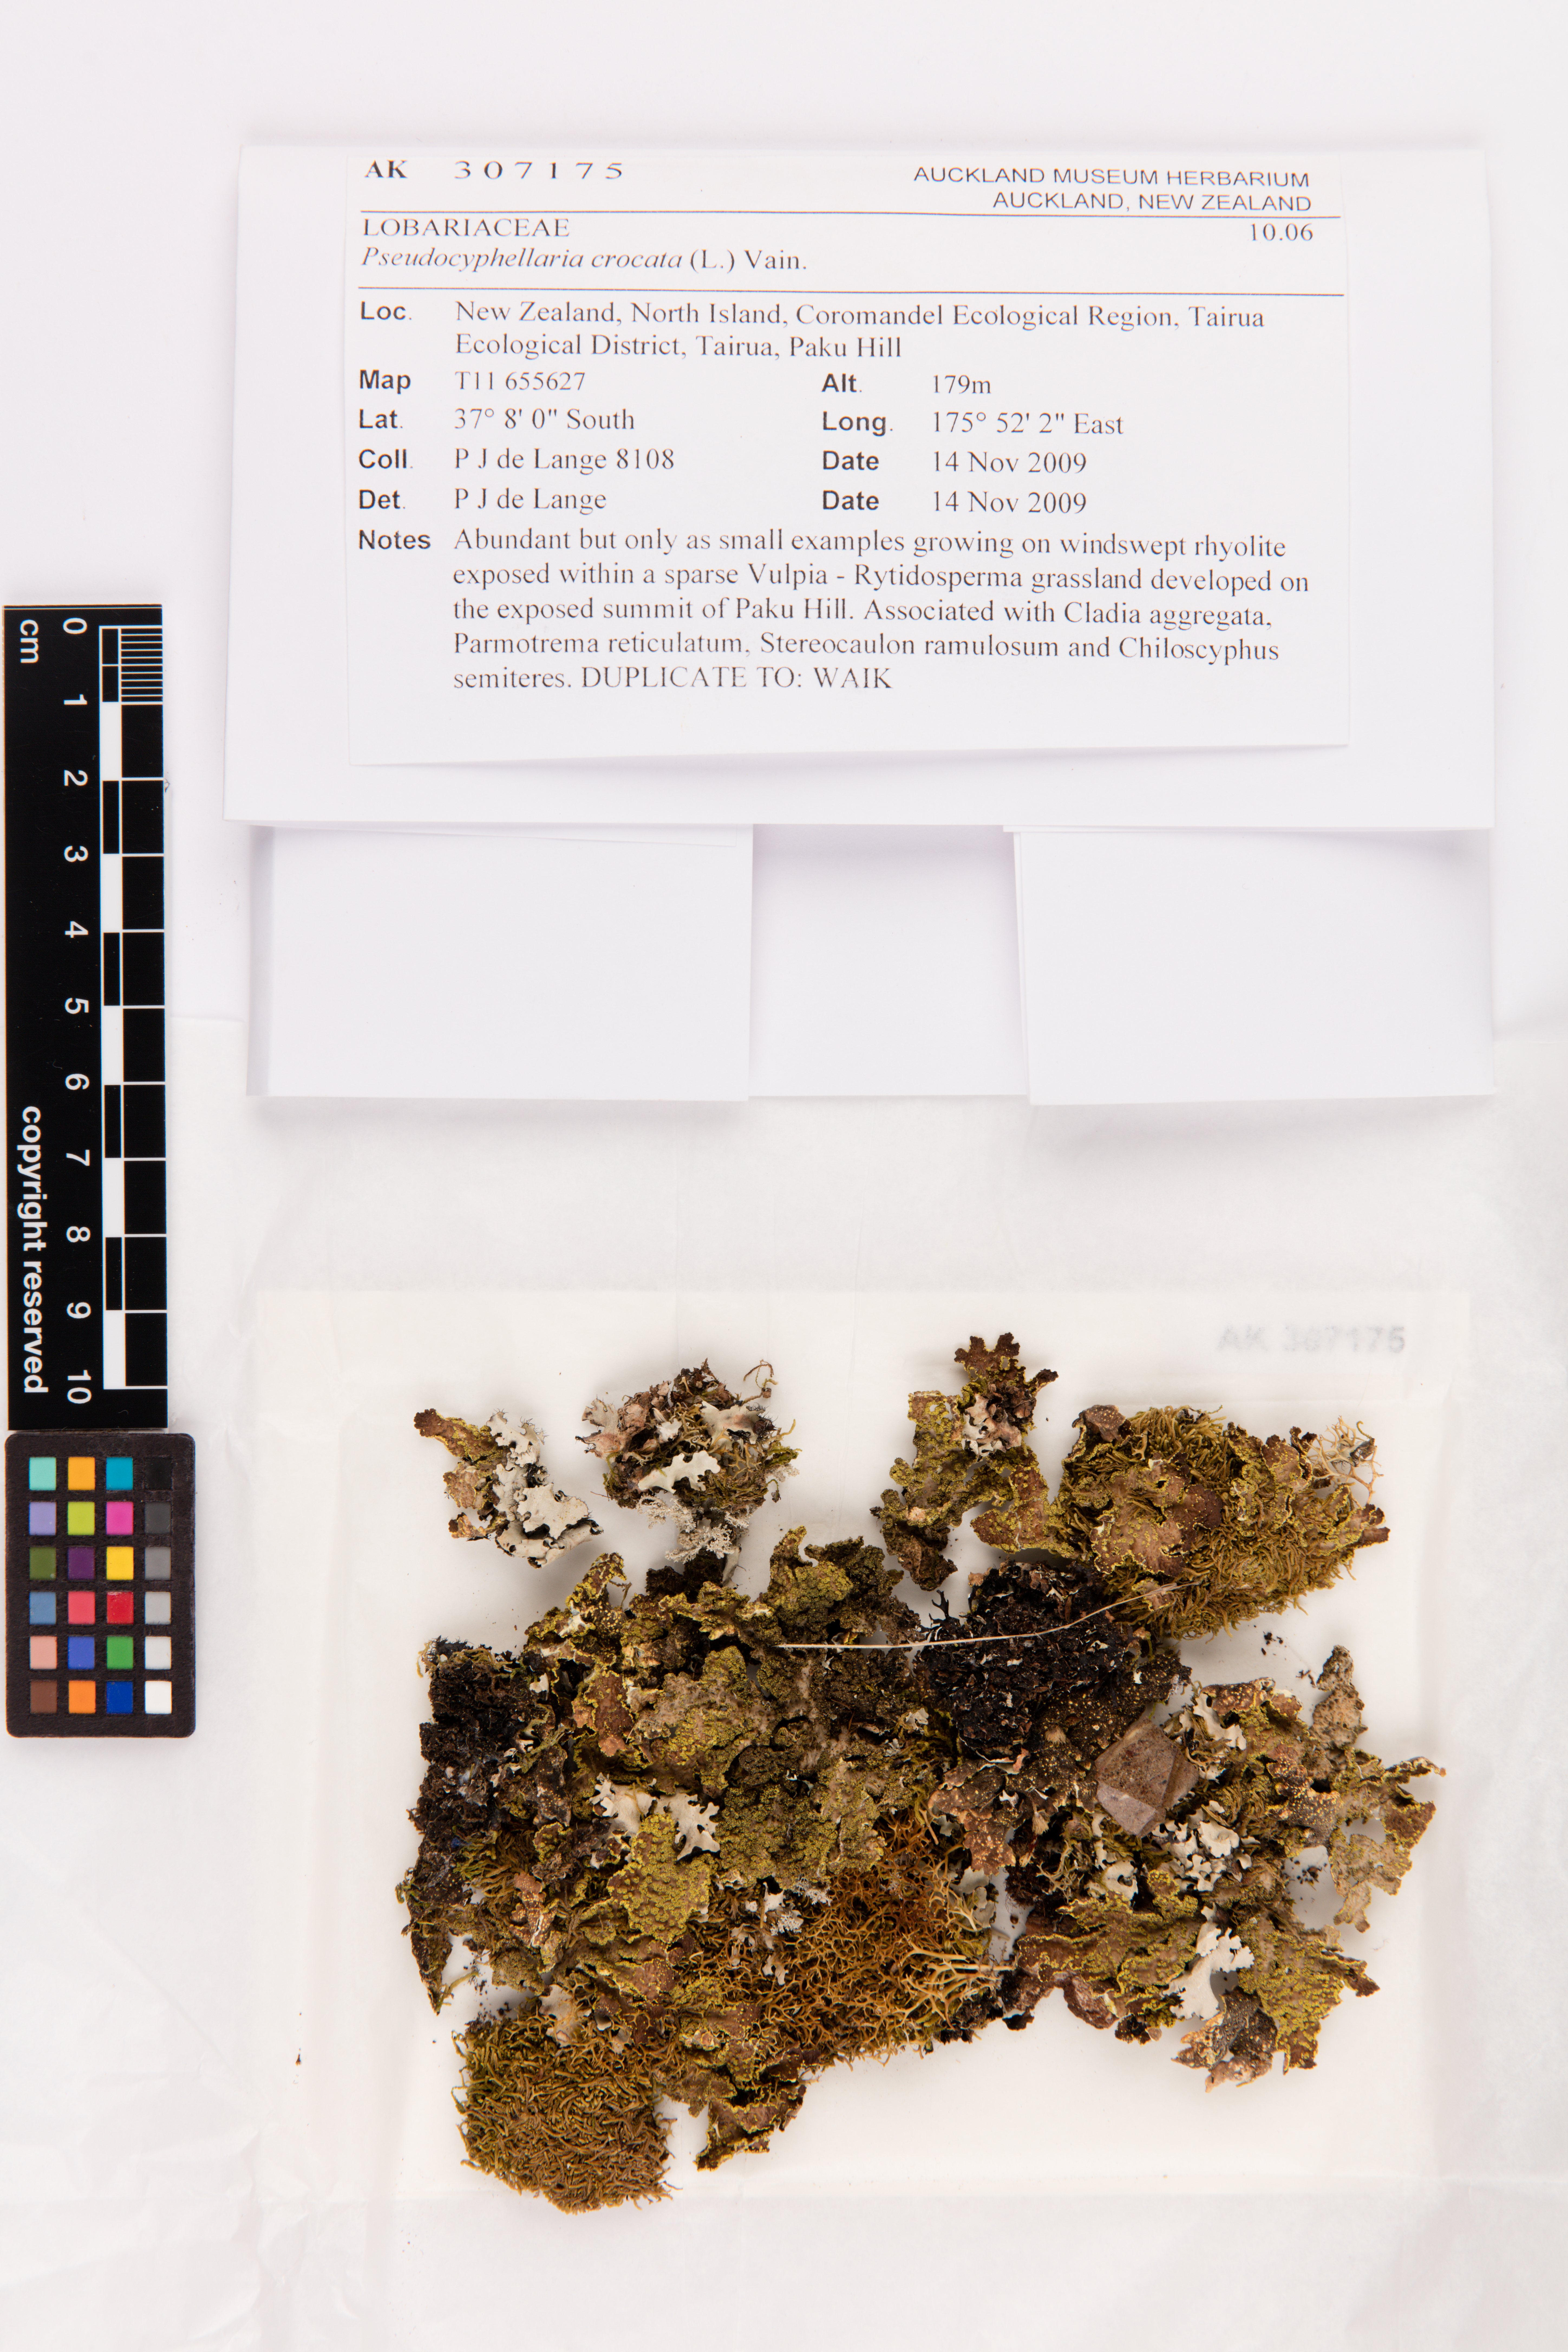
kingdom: Fungi
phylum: Ascomycota
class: Lecanoromycetes
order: Peltigerales
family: Lobariaceae
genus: Pseudocyphellaria
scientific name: Pseudocyphellaria crocata
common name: Golden specklebelly
